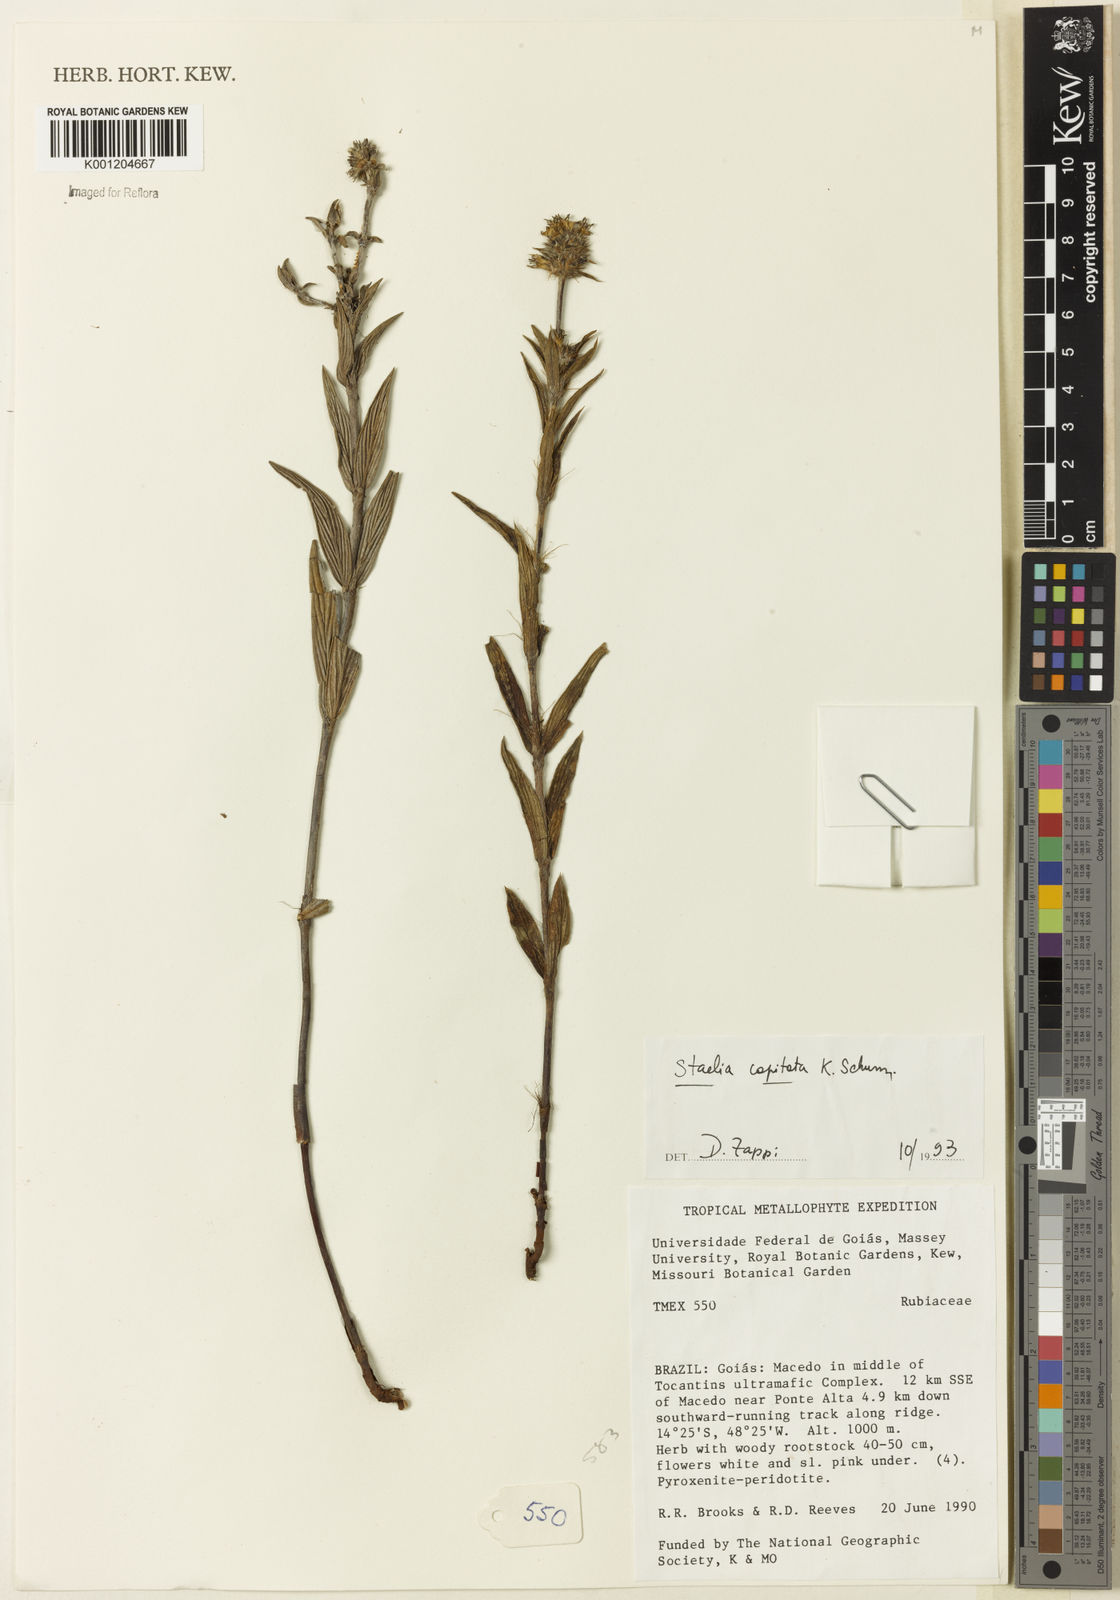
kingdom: Plantae
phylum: Tracheophyta
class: Magnoliopsida
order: Gentianales
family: Rubiaceae
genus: Planaltina
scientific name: Planaltina capitata
